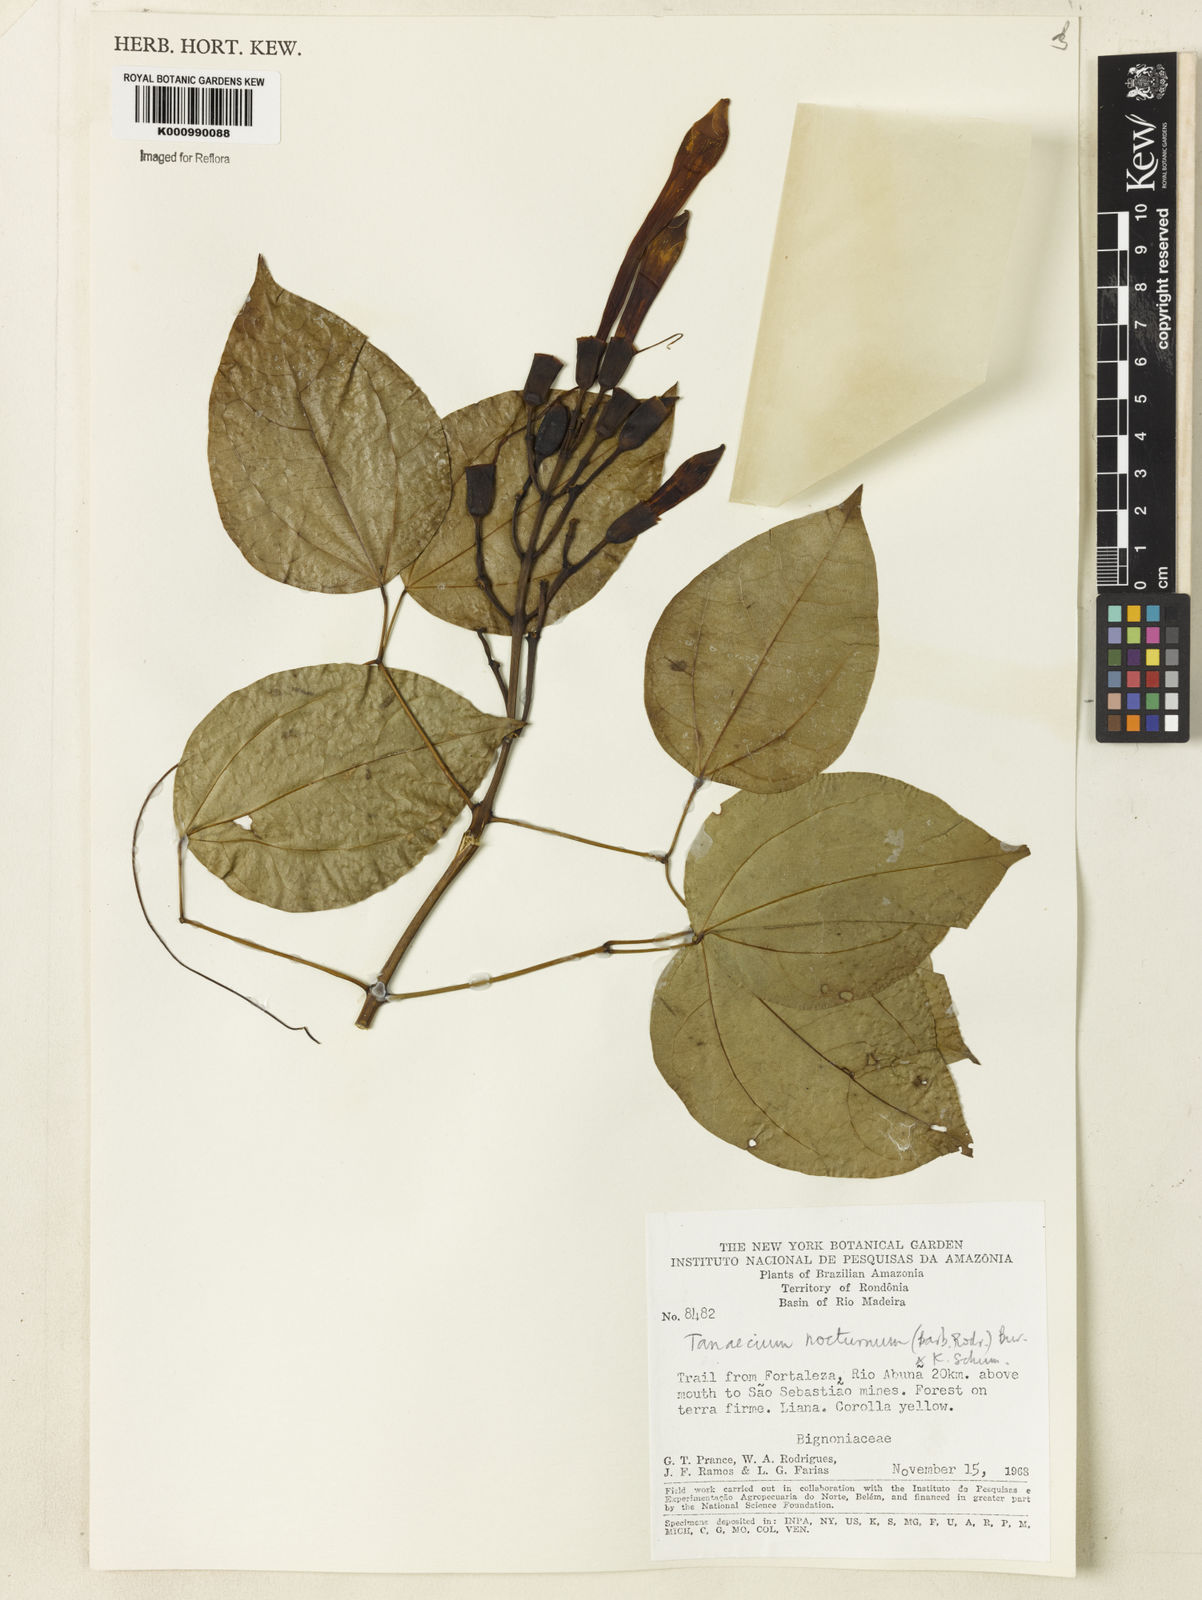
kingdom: Plantae
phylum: Tracheophyta
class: Magnoliopsida
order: Lamiales
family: Bignoniaceae
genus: Bignonia
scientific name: Bignonia nocturna
